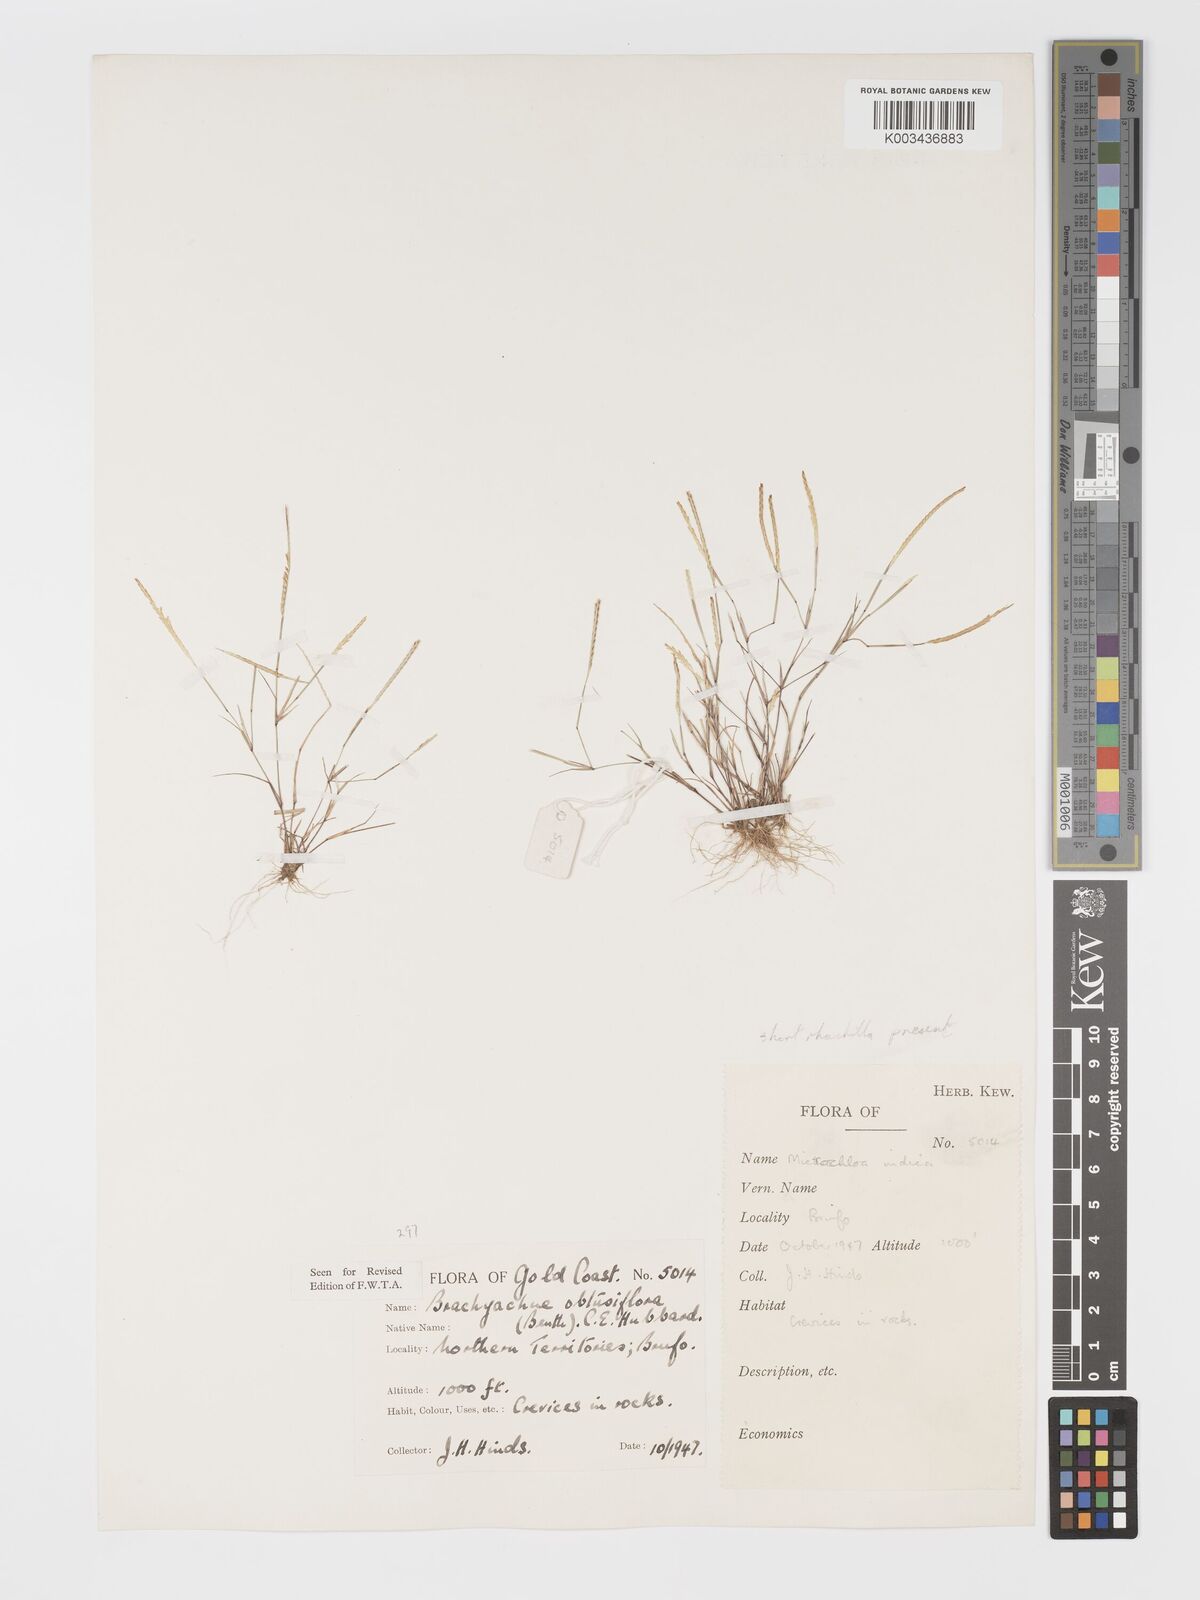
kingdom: Plantae
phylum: Tracheophyta
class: Liliopsida
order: Poales
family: Poaceae
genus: Micrachne
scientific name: Micrachne obtusiflora
